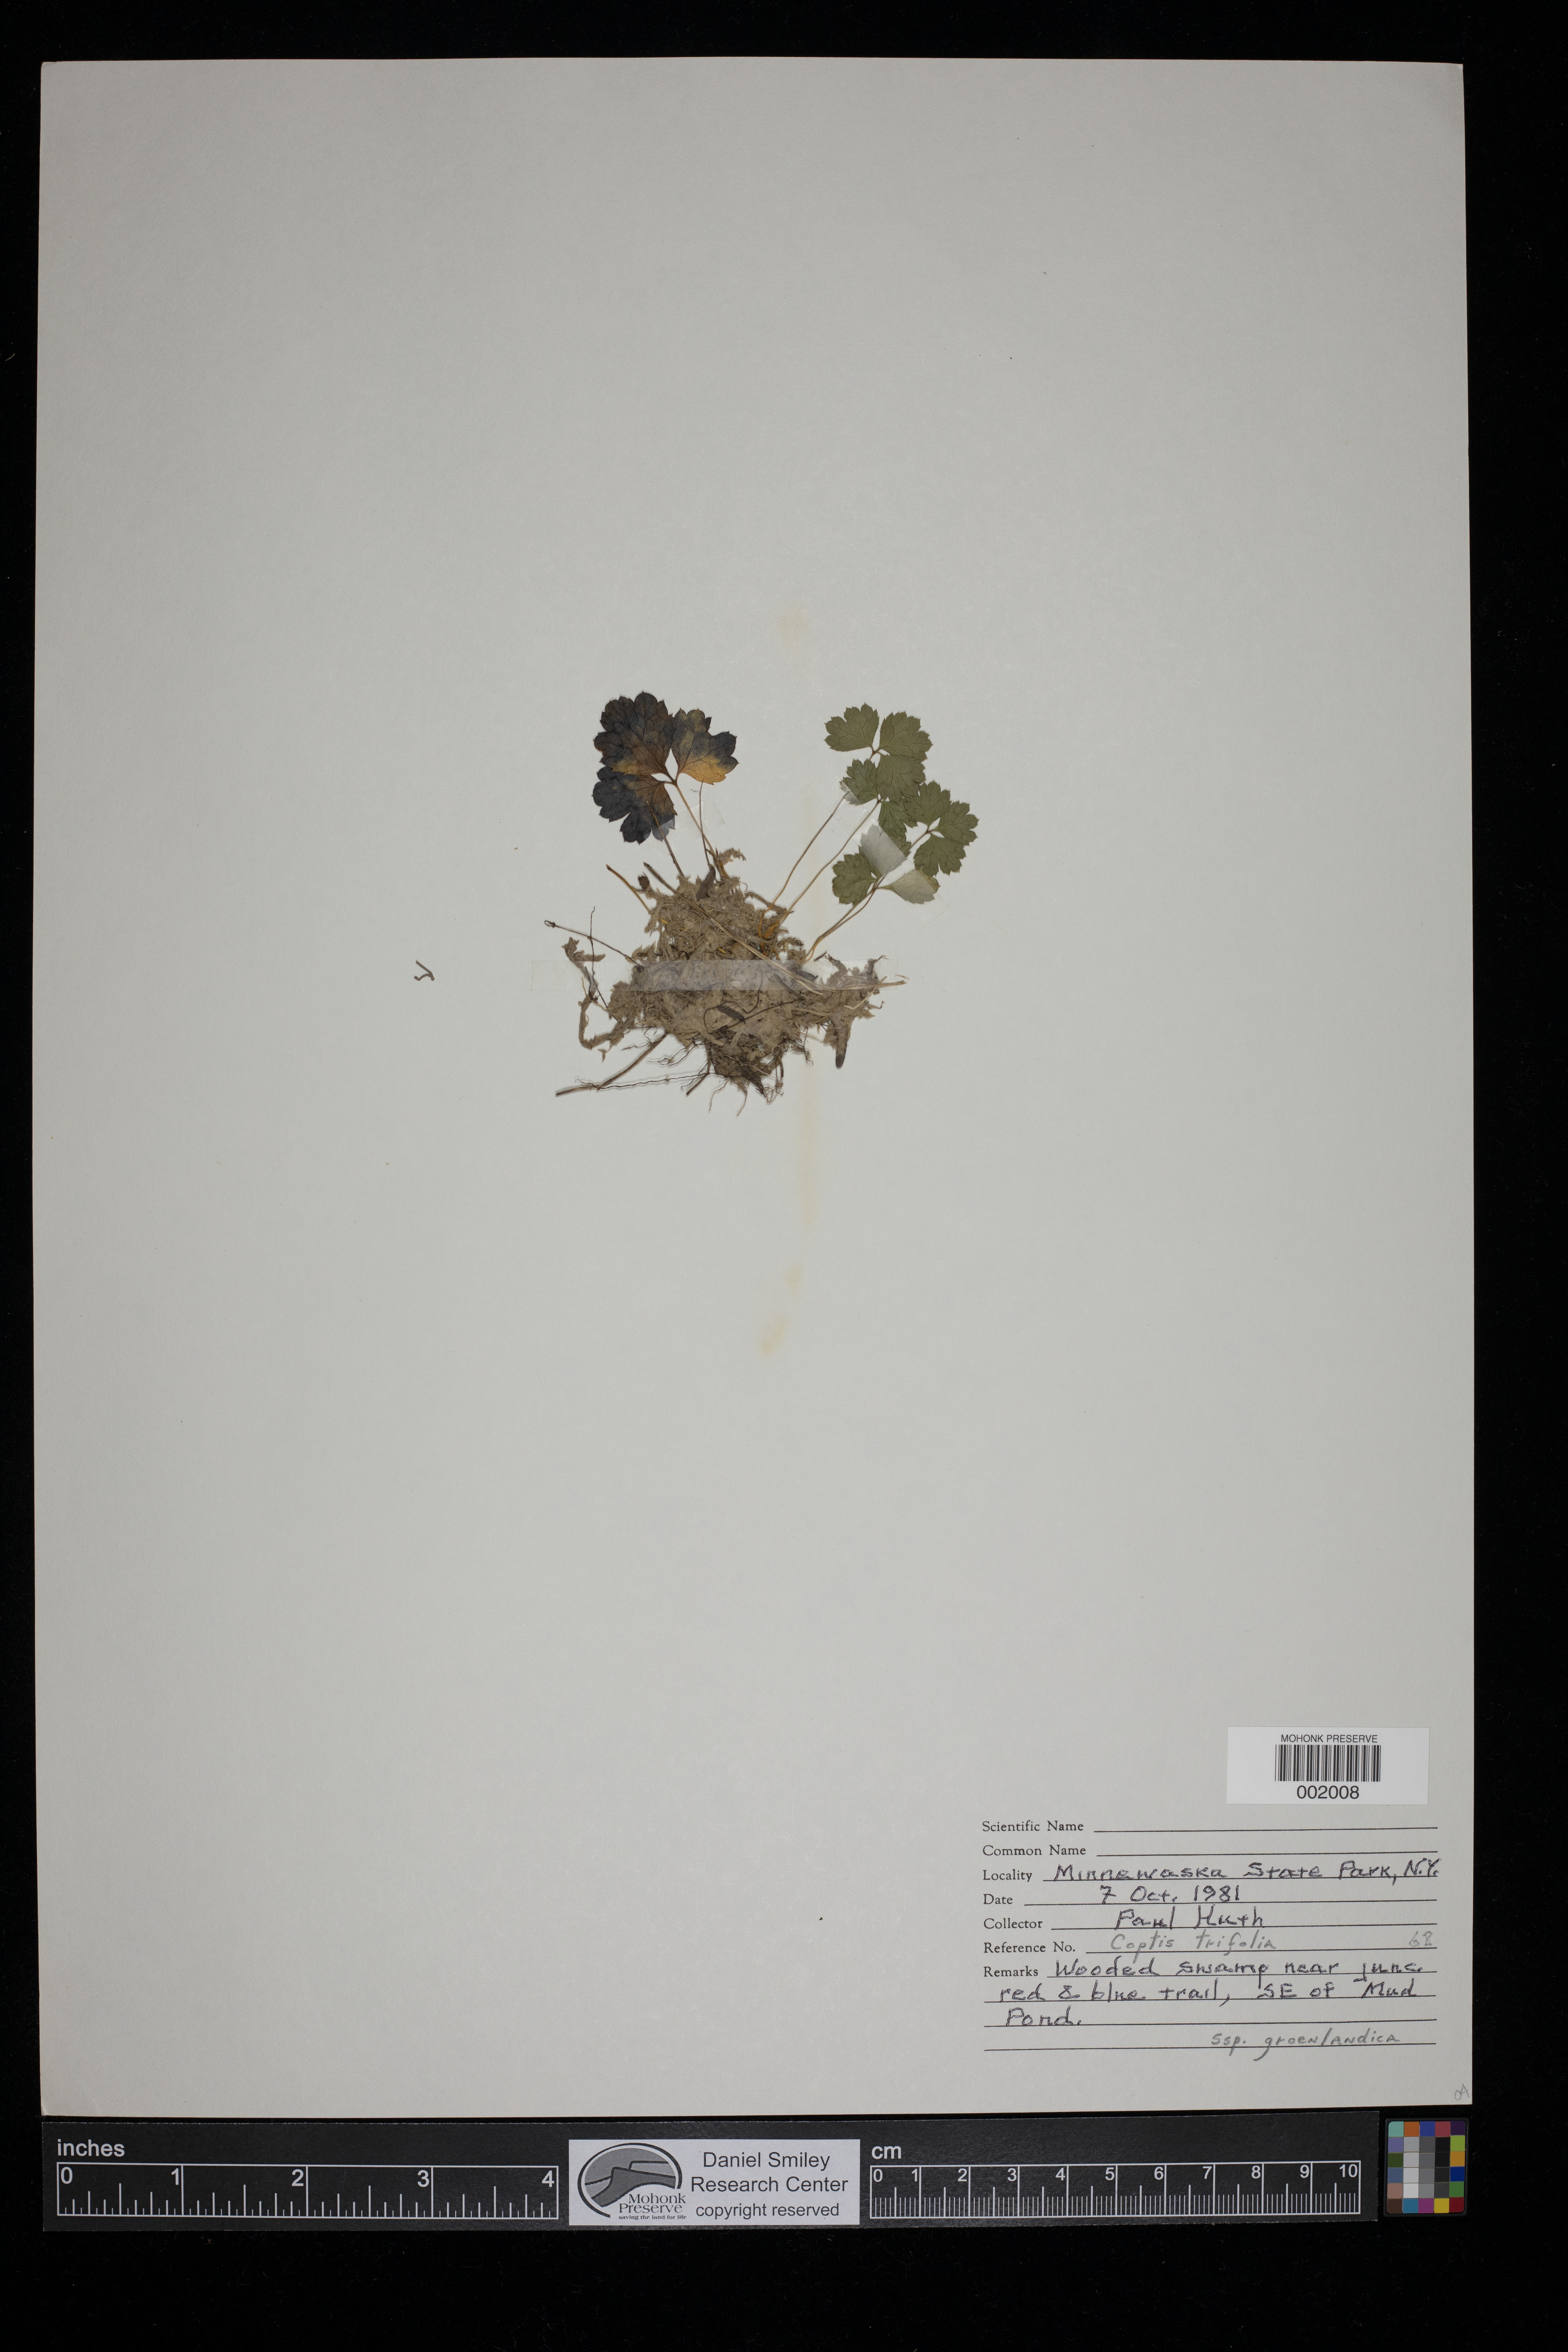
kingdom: Plantae
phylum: Tracheophyta
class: Magnoliopsida
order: Ranunculales
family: Ranunculaceae
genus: Coptis
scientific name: Coptis trifolia
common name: Canker-root
